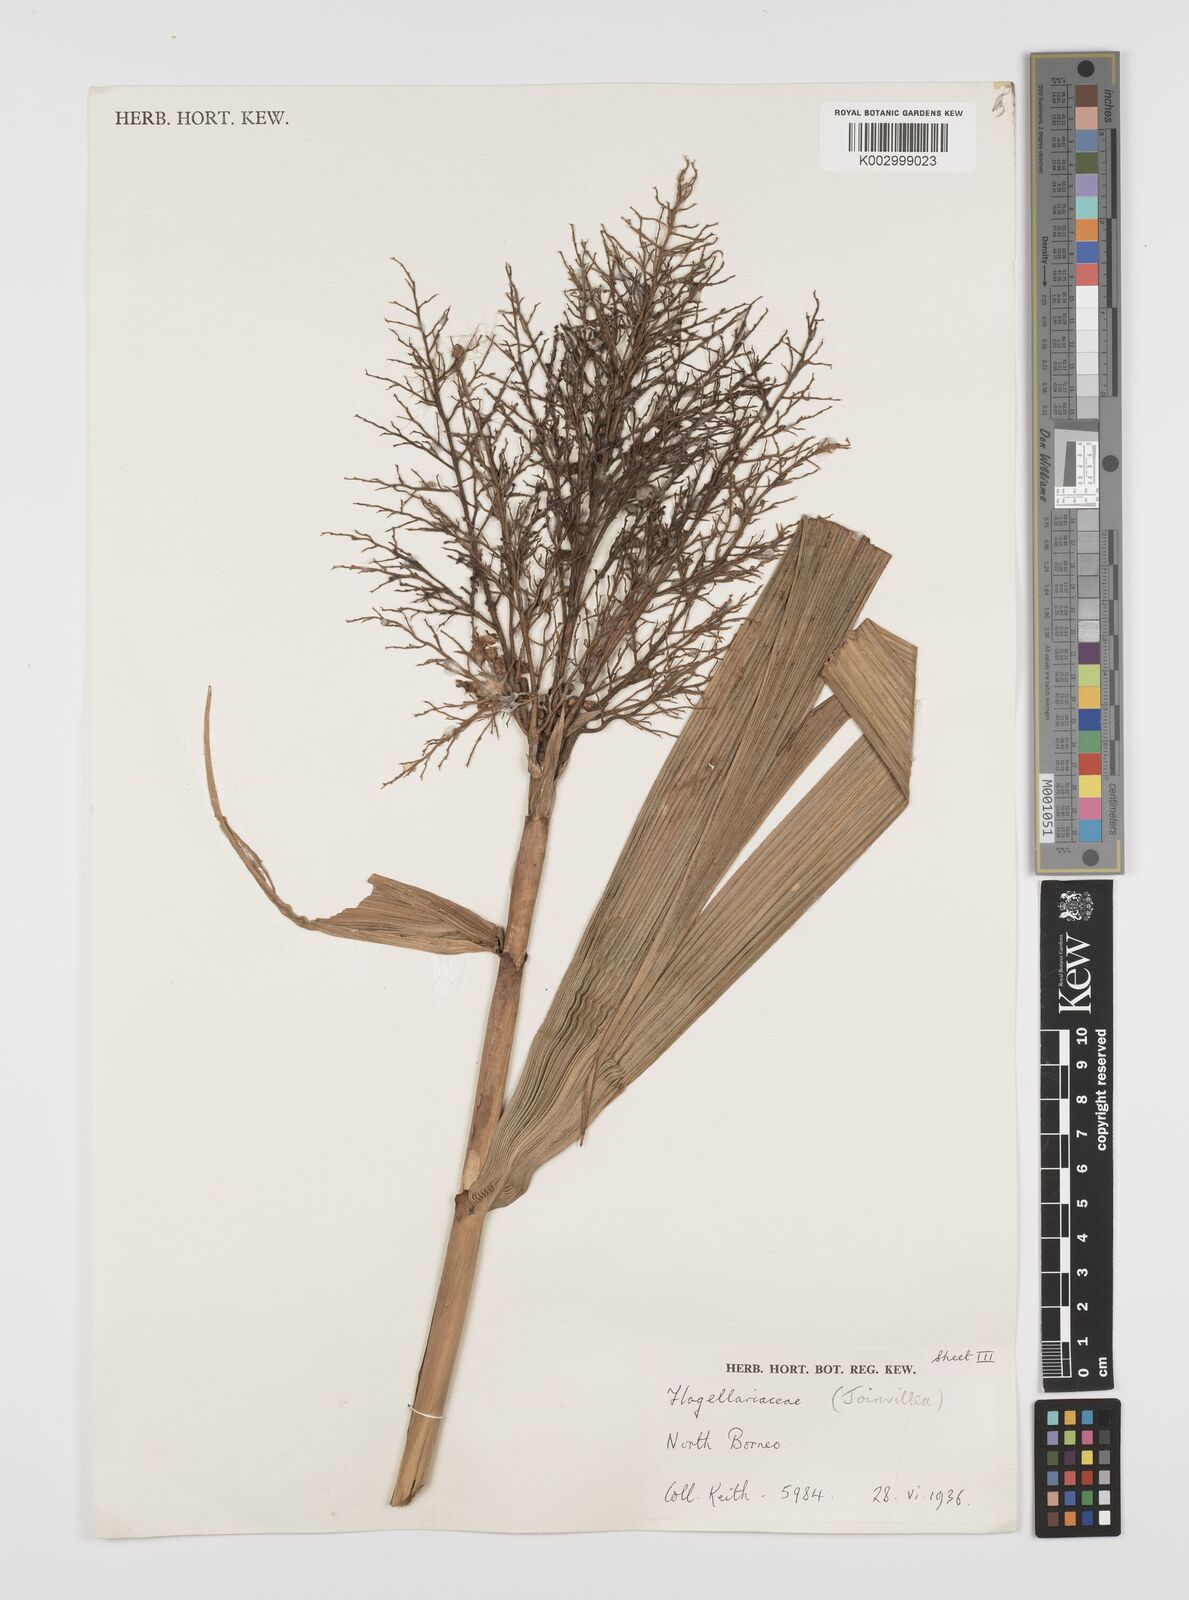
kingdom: Plantae
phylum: Tracheophyta
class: Liliopsida
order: Poales
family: Joinvilleaceae
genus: Joinvillea
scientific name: Joinvillea borneensis
